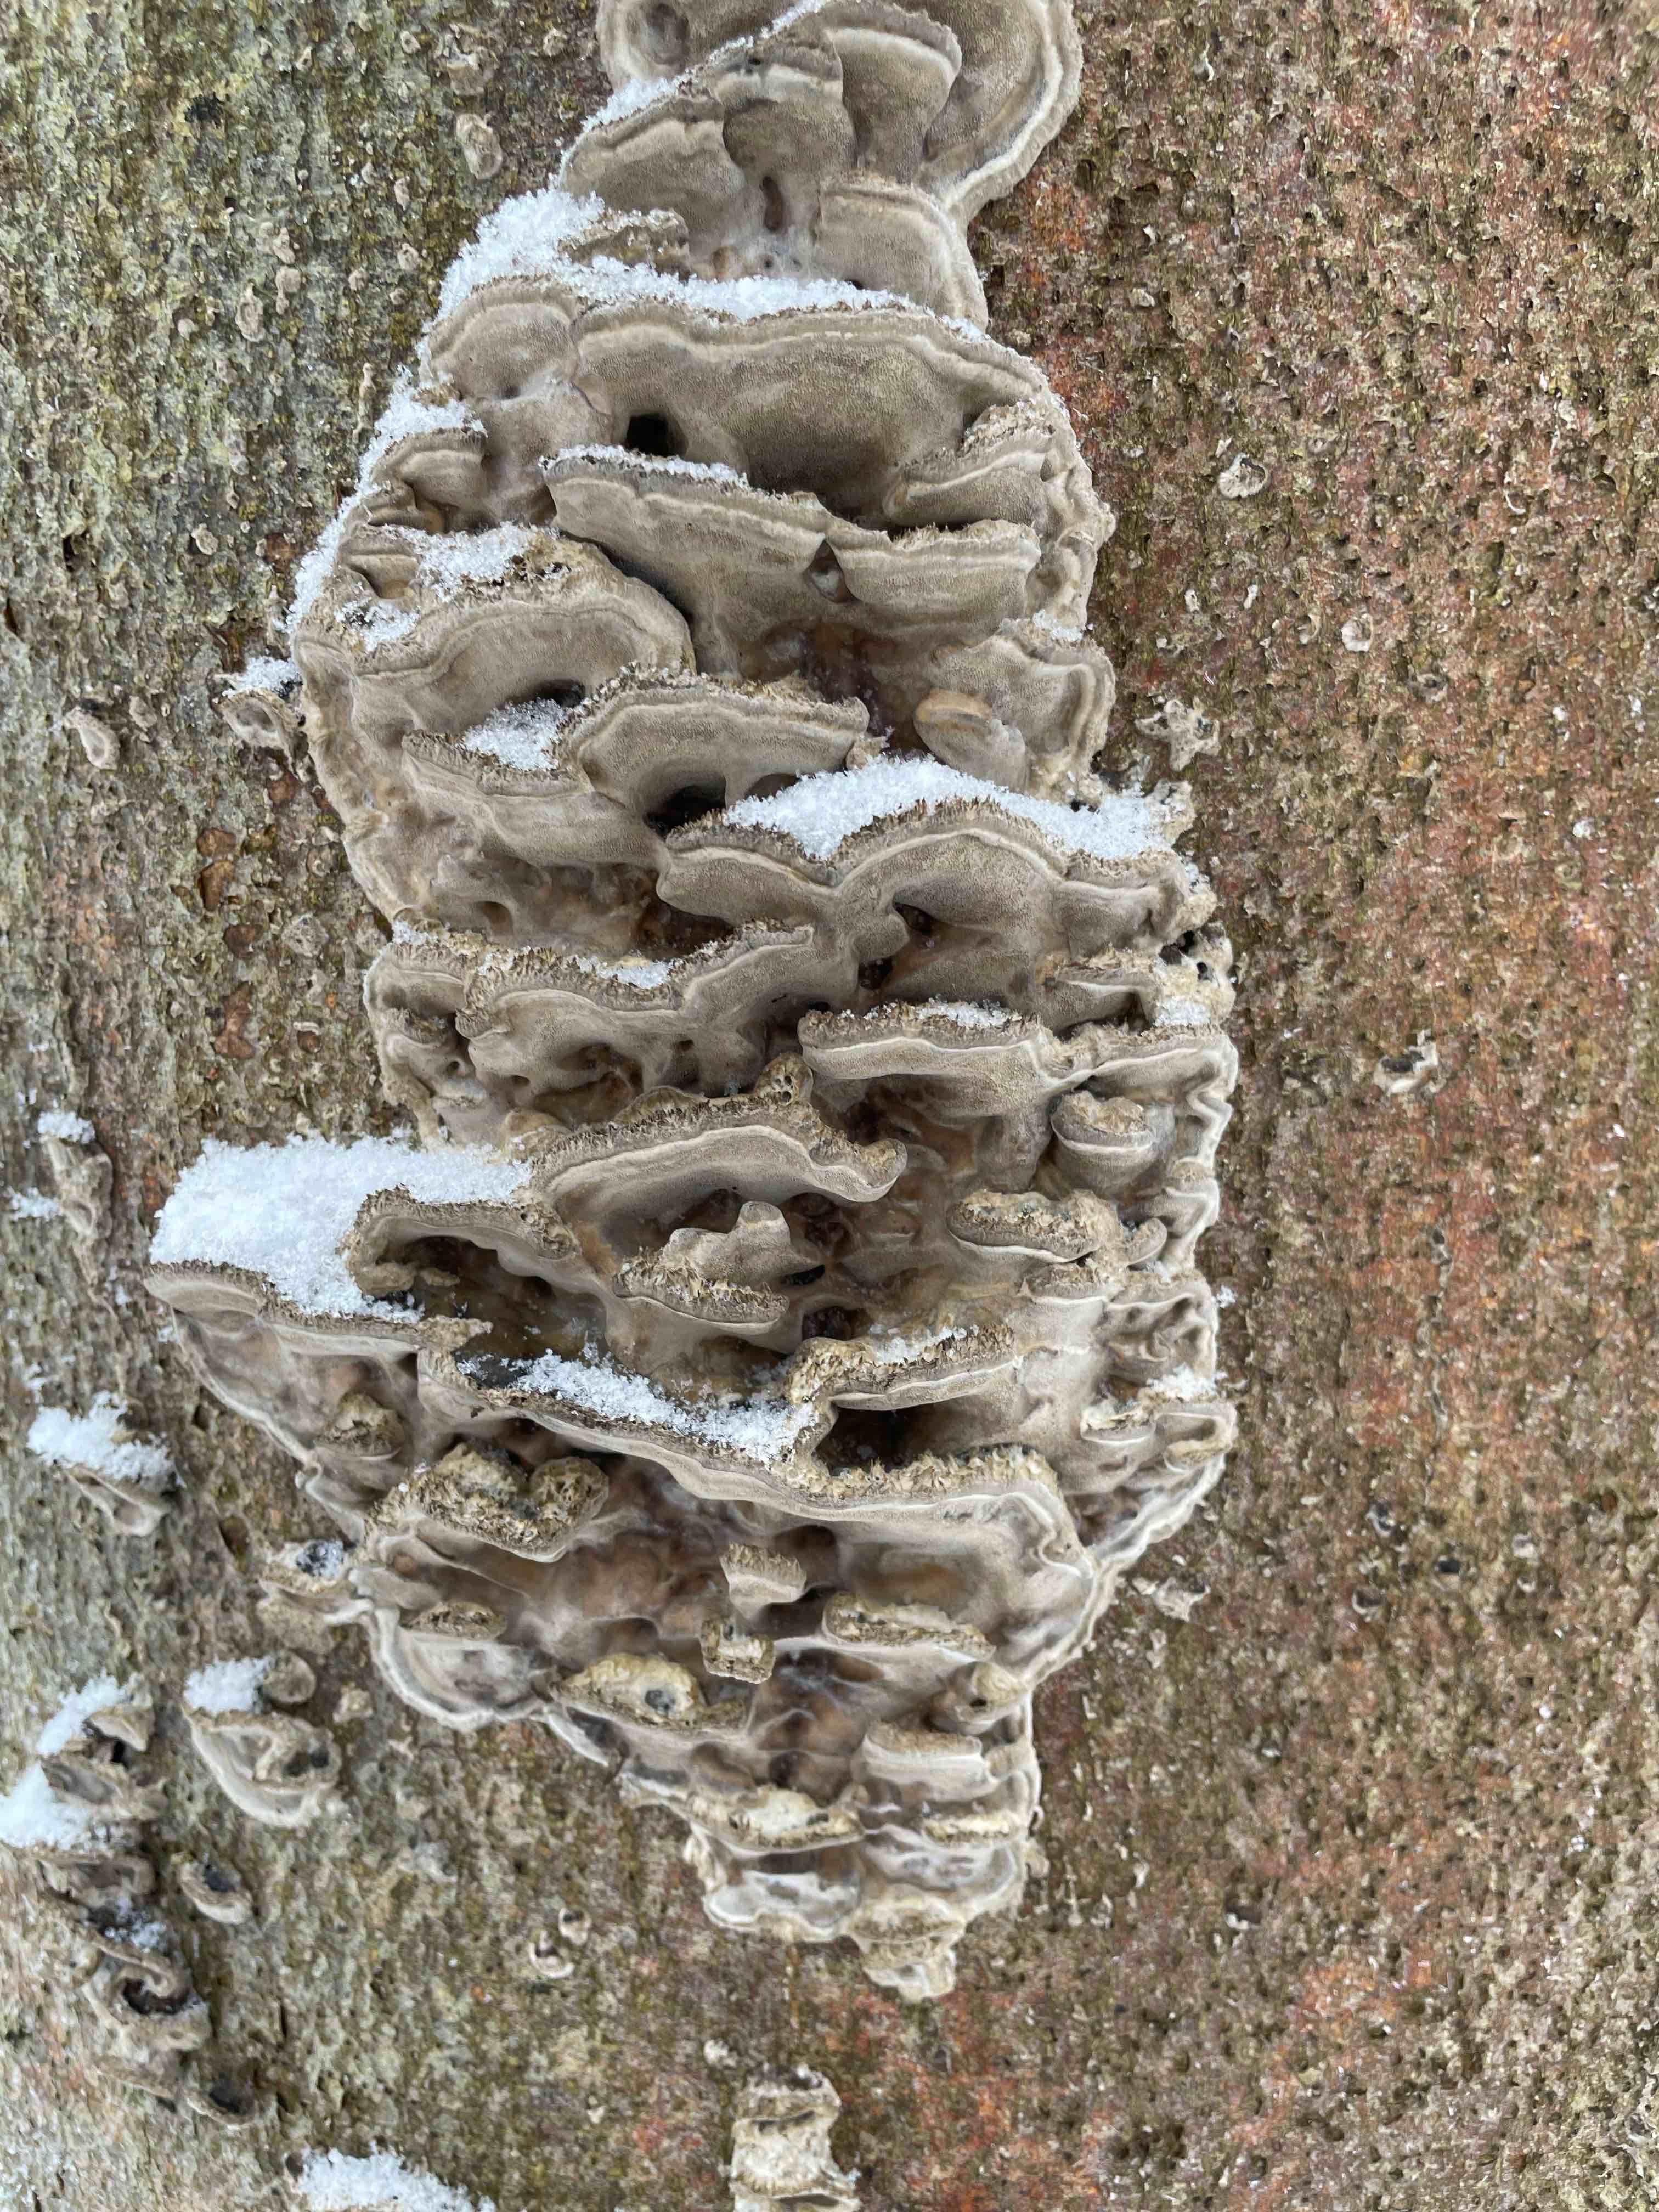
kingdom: Fungi
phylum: Basidiomycota
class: Agaricomycetes
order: Polyporales
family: Phanerochaetaceae
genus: Bjerkandera
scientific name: Bjerkandera adusta
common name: sveden sodporesvamp
